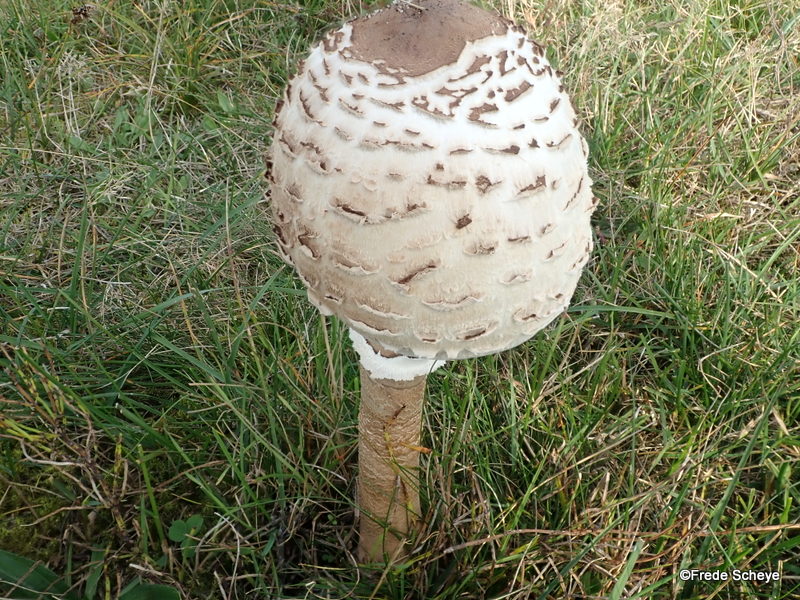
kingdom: Fungi
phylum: Basidiomycota
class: Agaricomycetes
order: Agaricales
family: Agaricaceae
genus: Macrolepiota
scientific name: Macrolepiota procera
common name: stor kæmpeparasolhat
